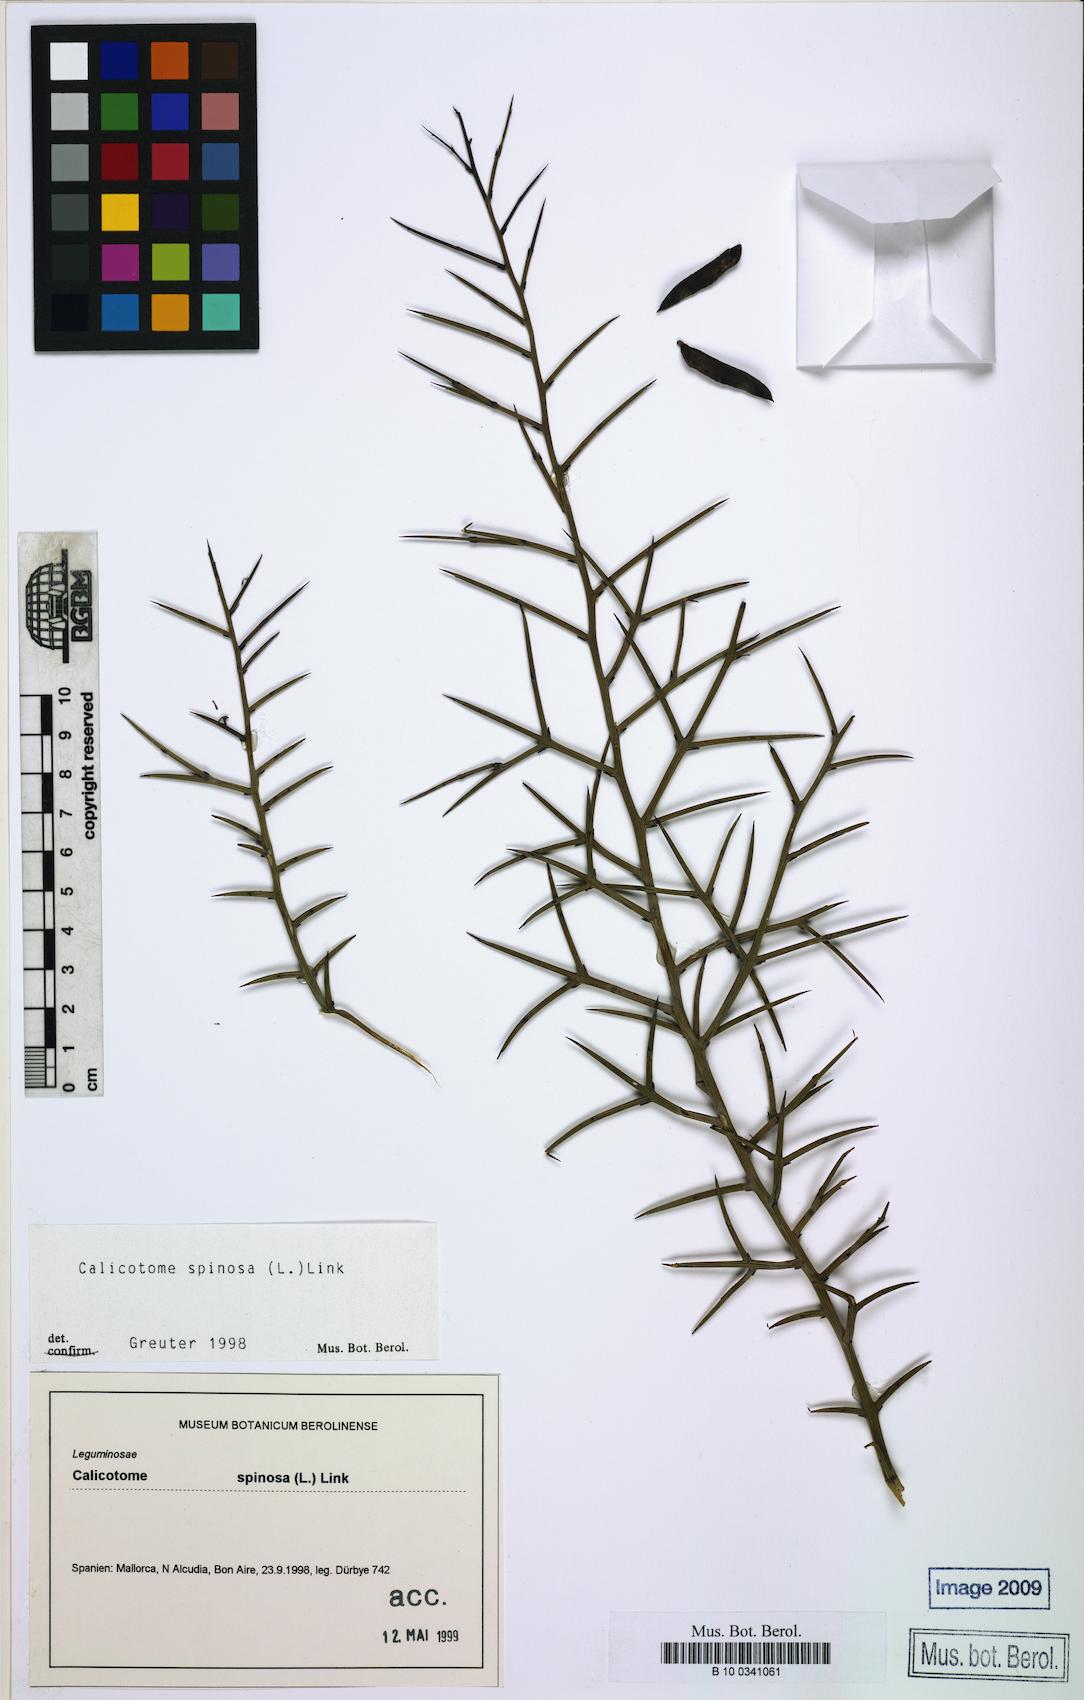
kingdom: Plantae
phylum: Tracheophyta
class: Magnoliopsida
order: Fabales
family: Fabaceae
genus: Calicotome
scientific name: Calicotome spinosa
